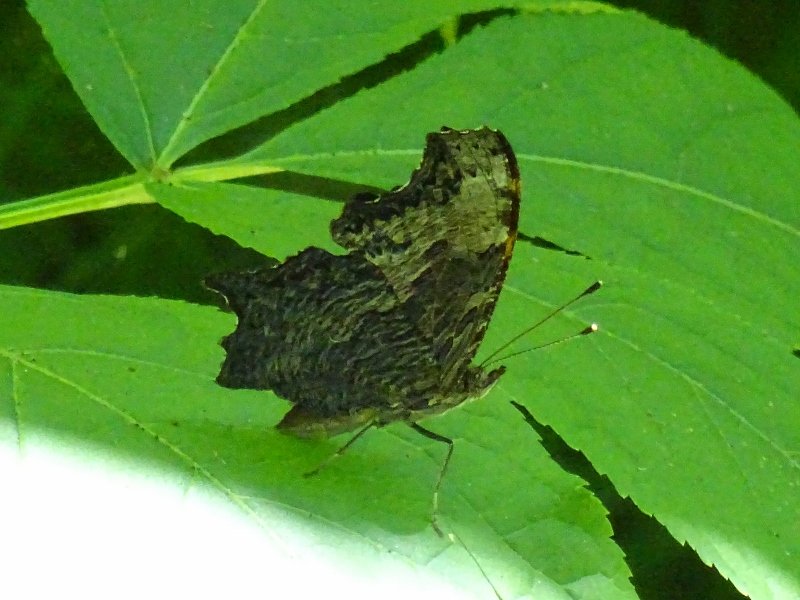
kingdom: Animalia
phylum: Arthropoda
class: Insecta
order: Lepidoptera
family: Nymphalidae
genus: Polygonia
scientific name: Polygonia progne
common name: Gray Comma
